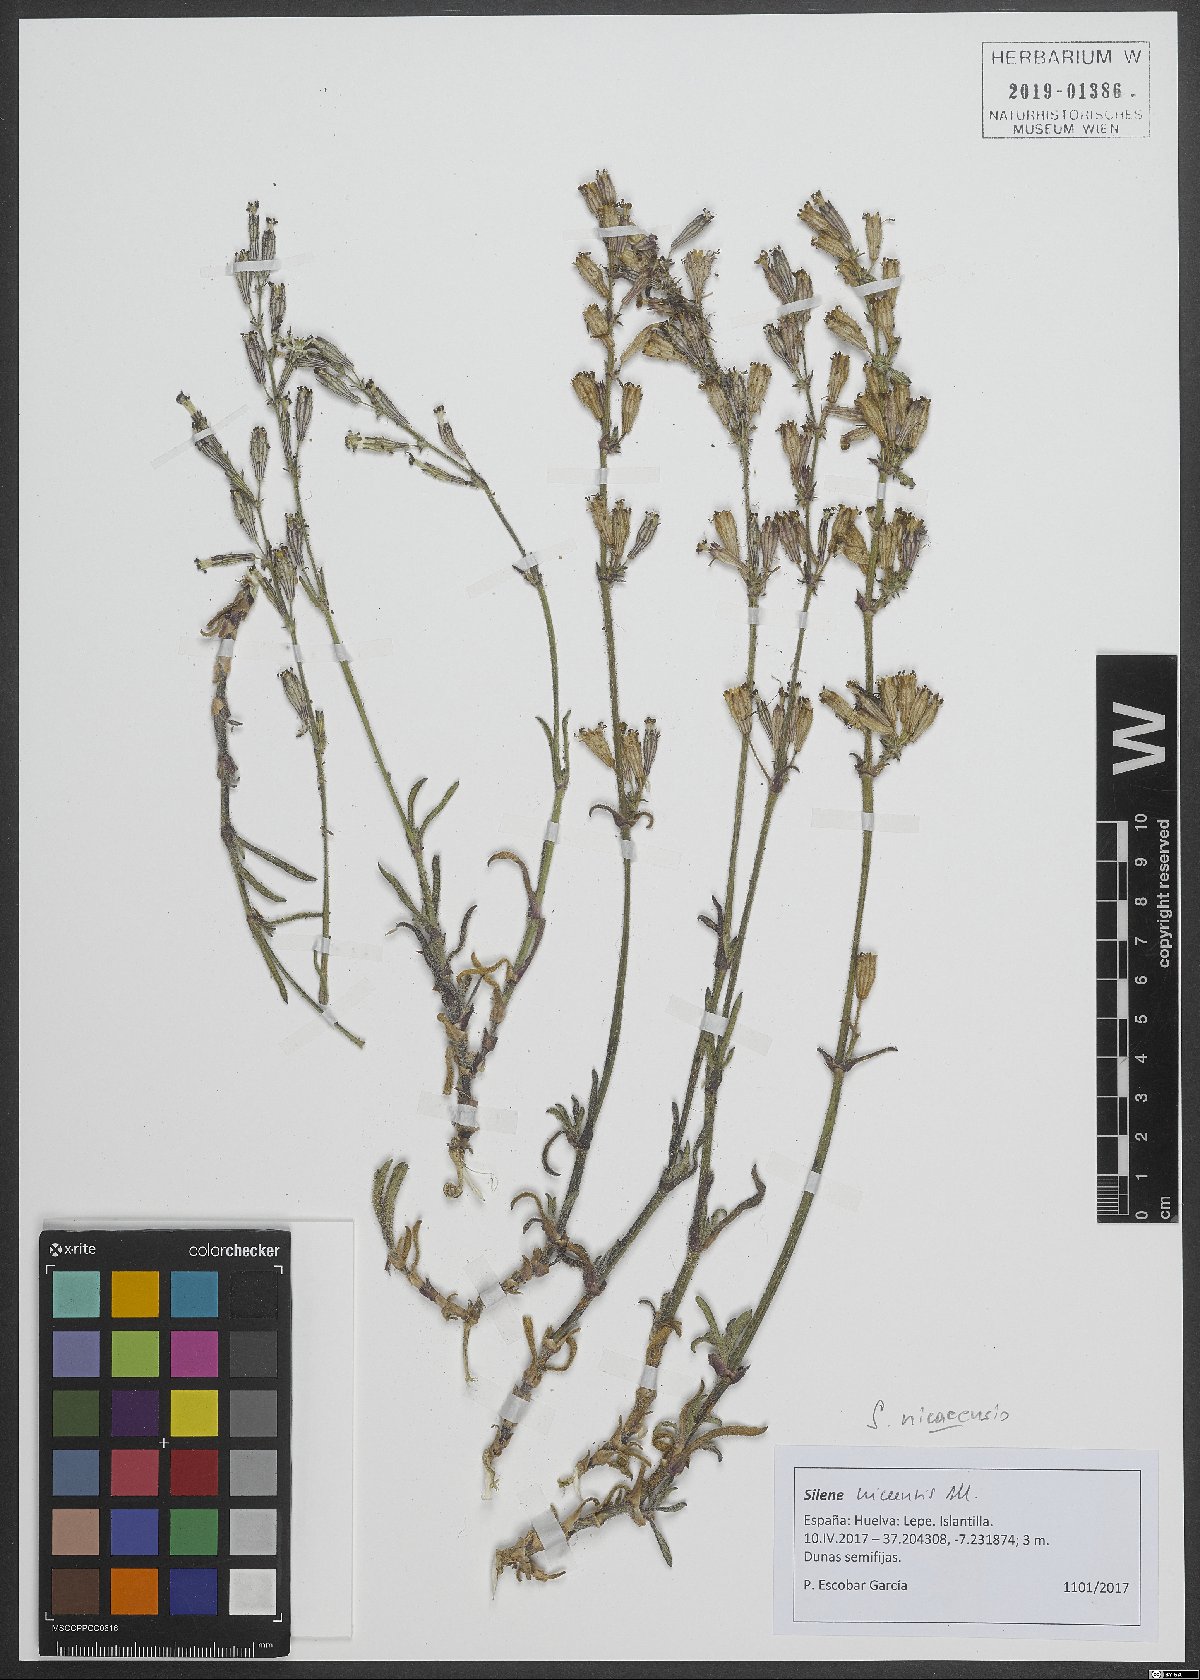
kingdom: Plantae
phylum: Tracheophyta
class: Magnoliopsida
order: Caryophyllales
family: Caryophyllaceae
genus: Silene
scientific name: Silene nicaeensis
